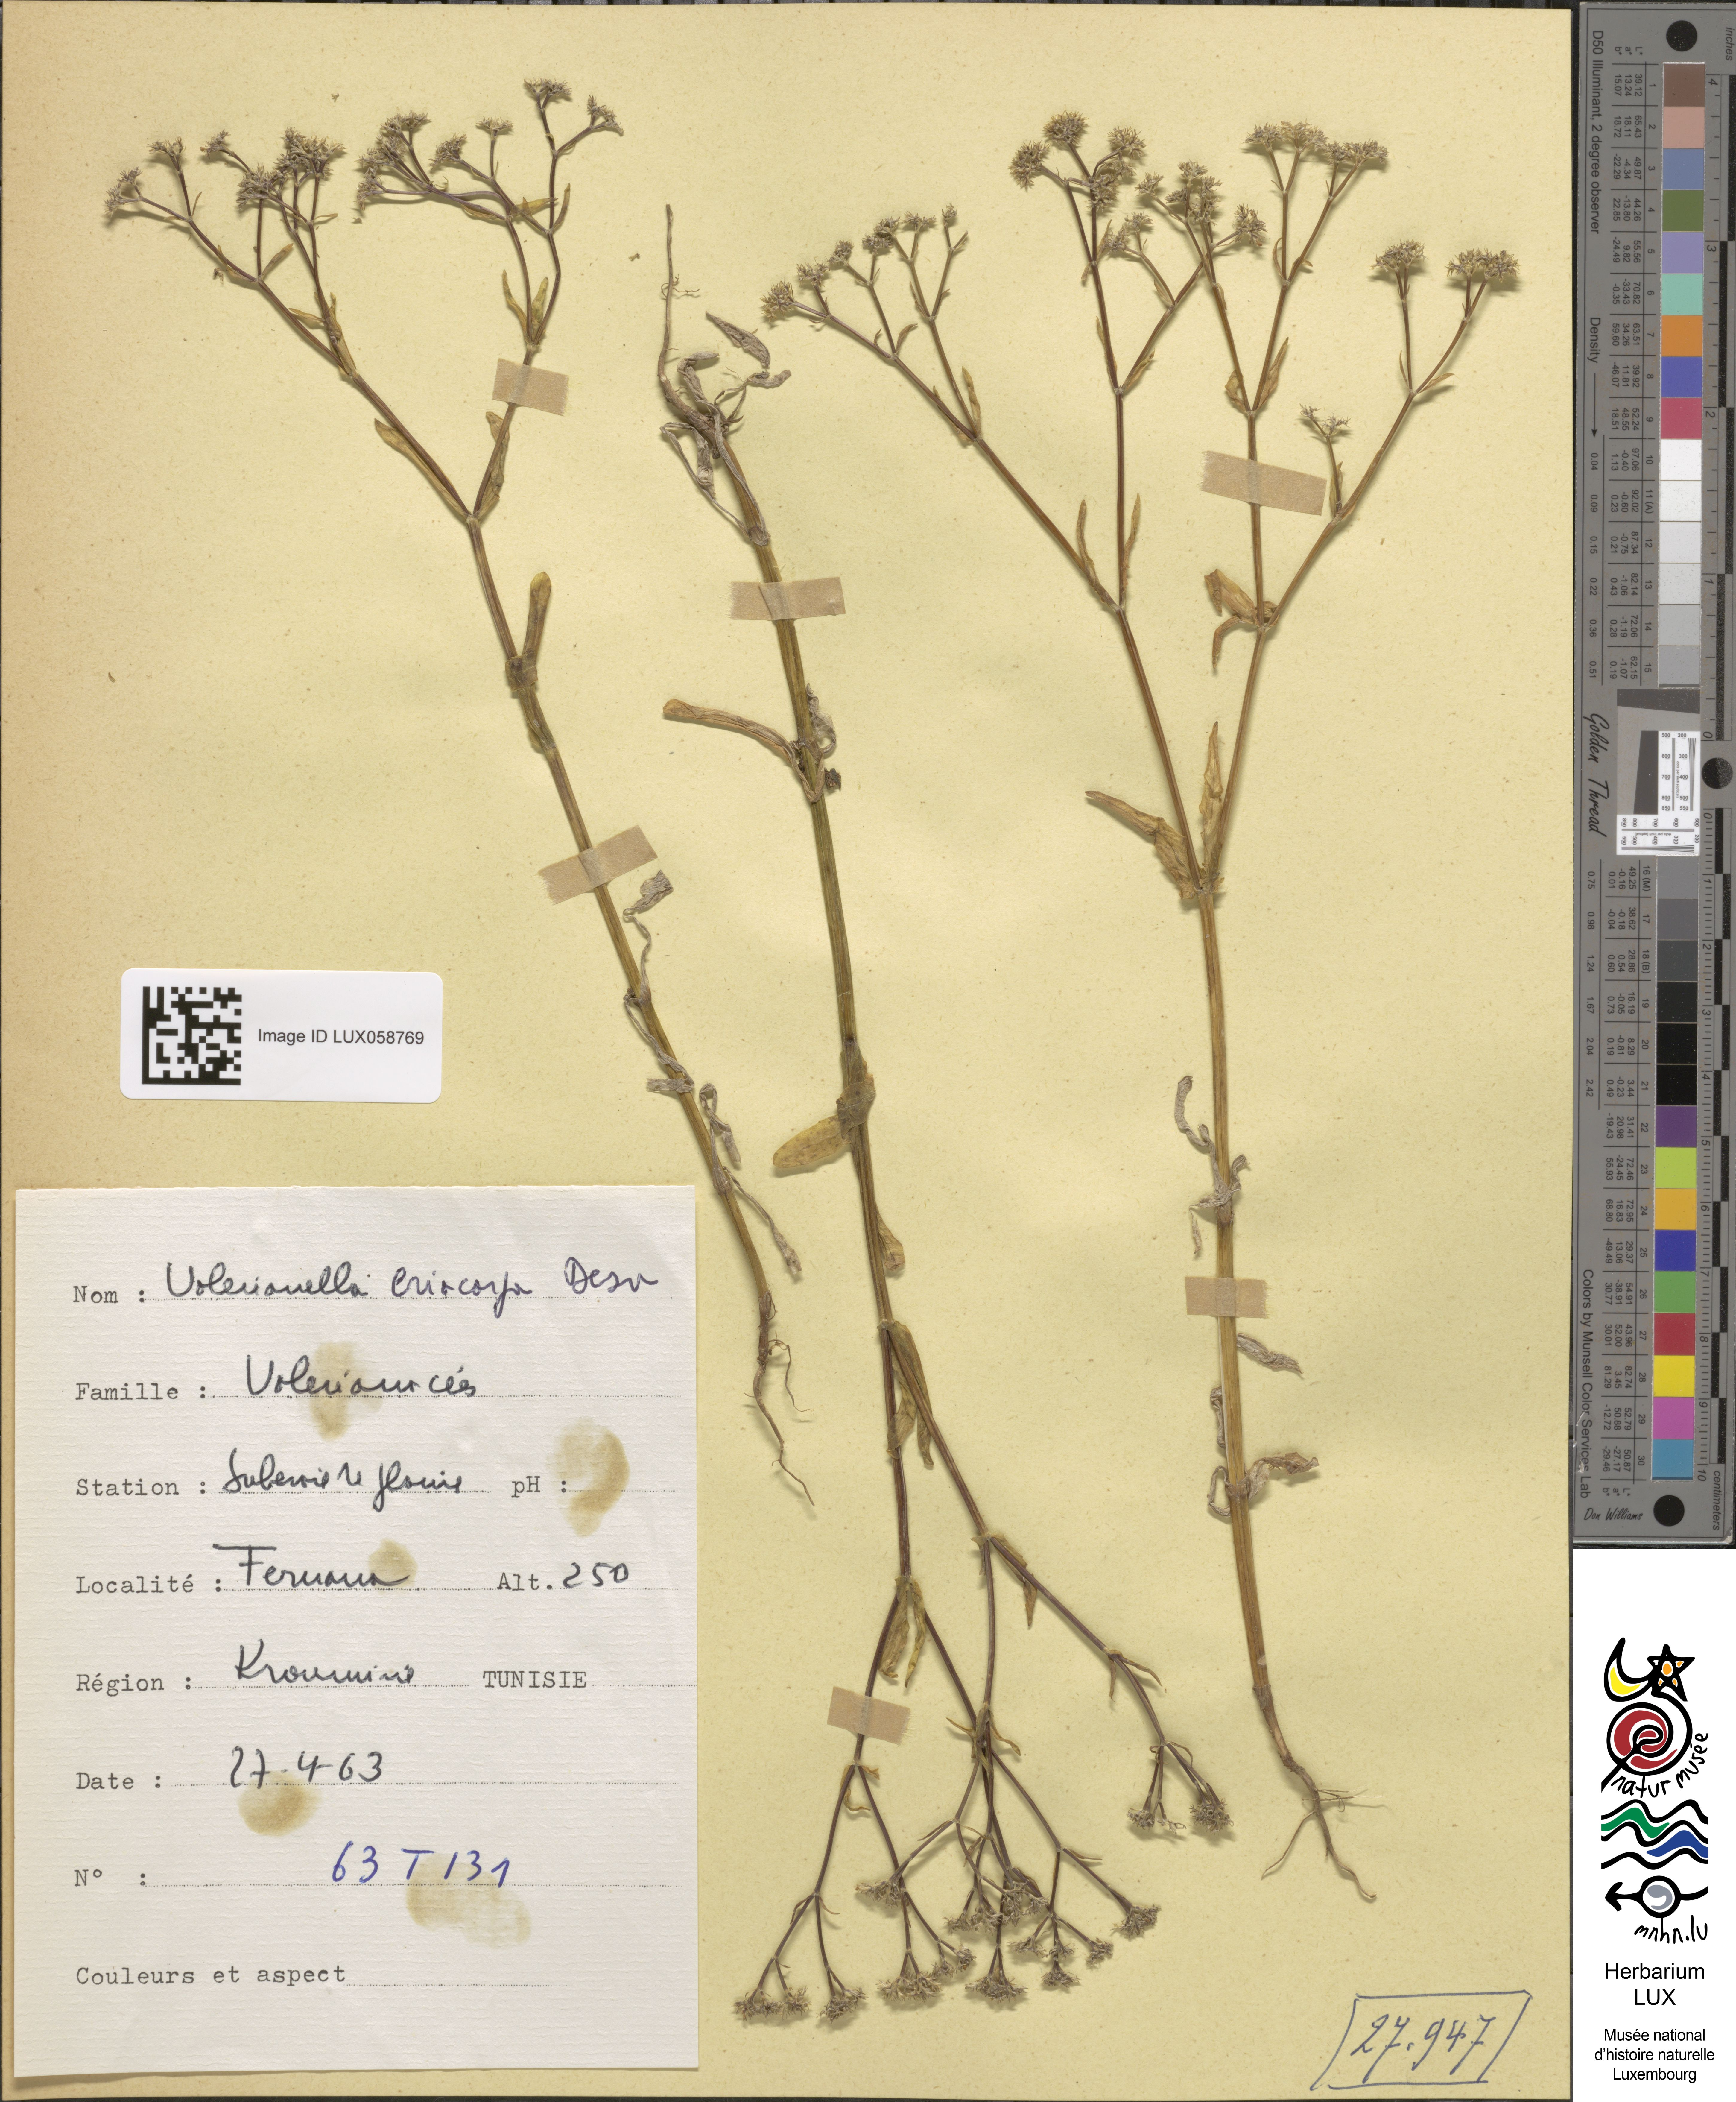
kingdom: Plantae
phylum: Tracheophyta
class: Magnoliopsida
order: Dipsacales
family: Caprifoliaceae
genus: Valerianella
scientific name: Valerianella eriocarpa
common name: Hairy-fruited cornsalad
